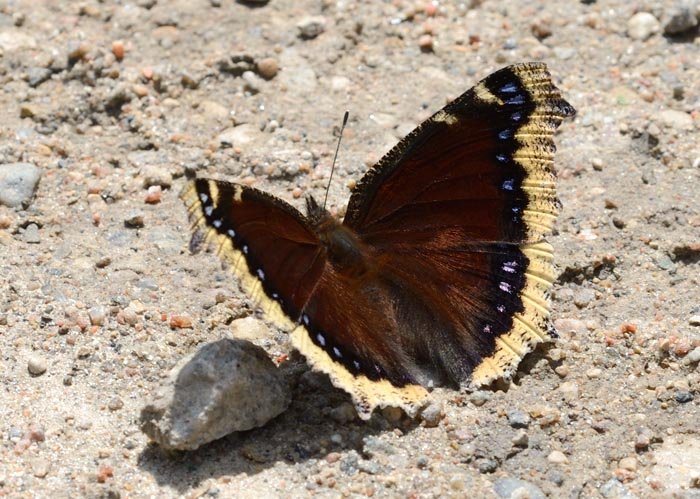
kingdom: Animalia
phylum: Arthropoda
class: Insecta
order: Lepidoptera
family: Nymphalidae
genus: Nymphalis
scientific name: Nymphalis antiopa
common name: Mourning Cloak
